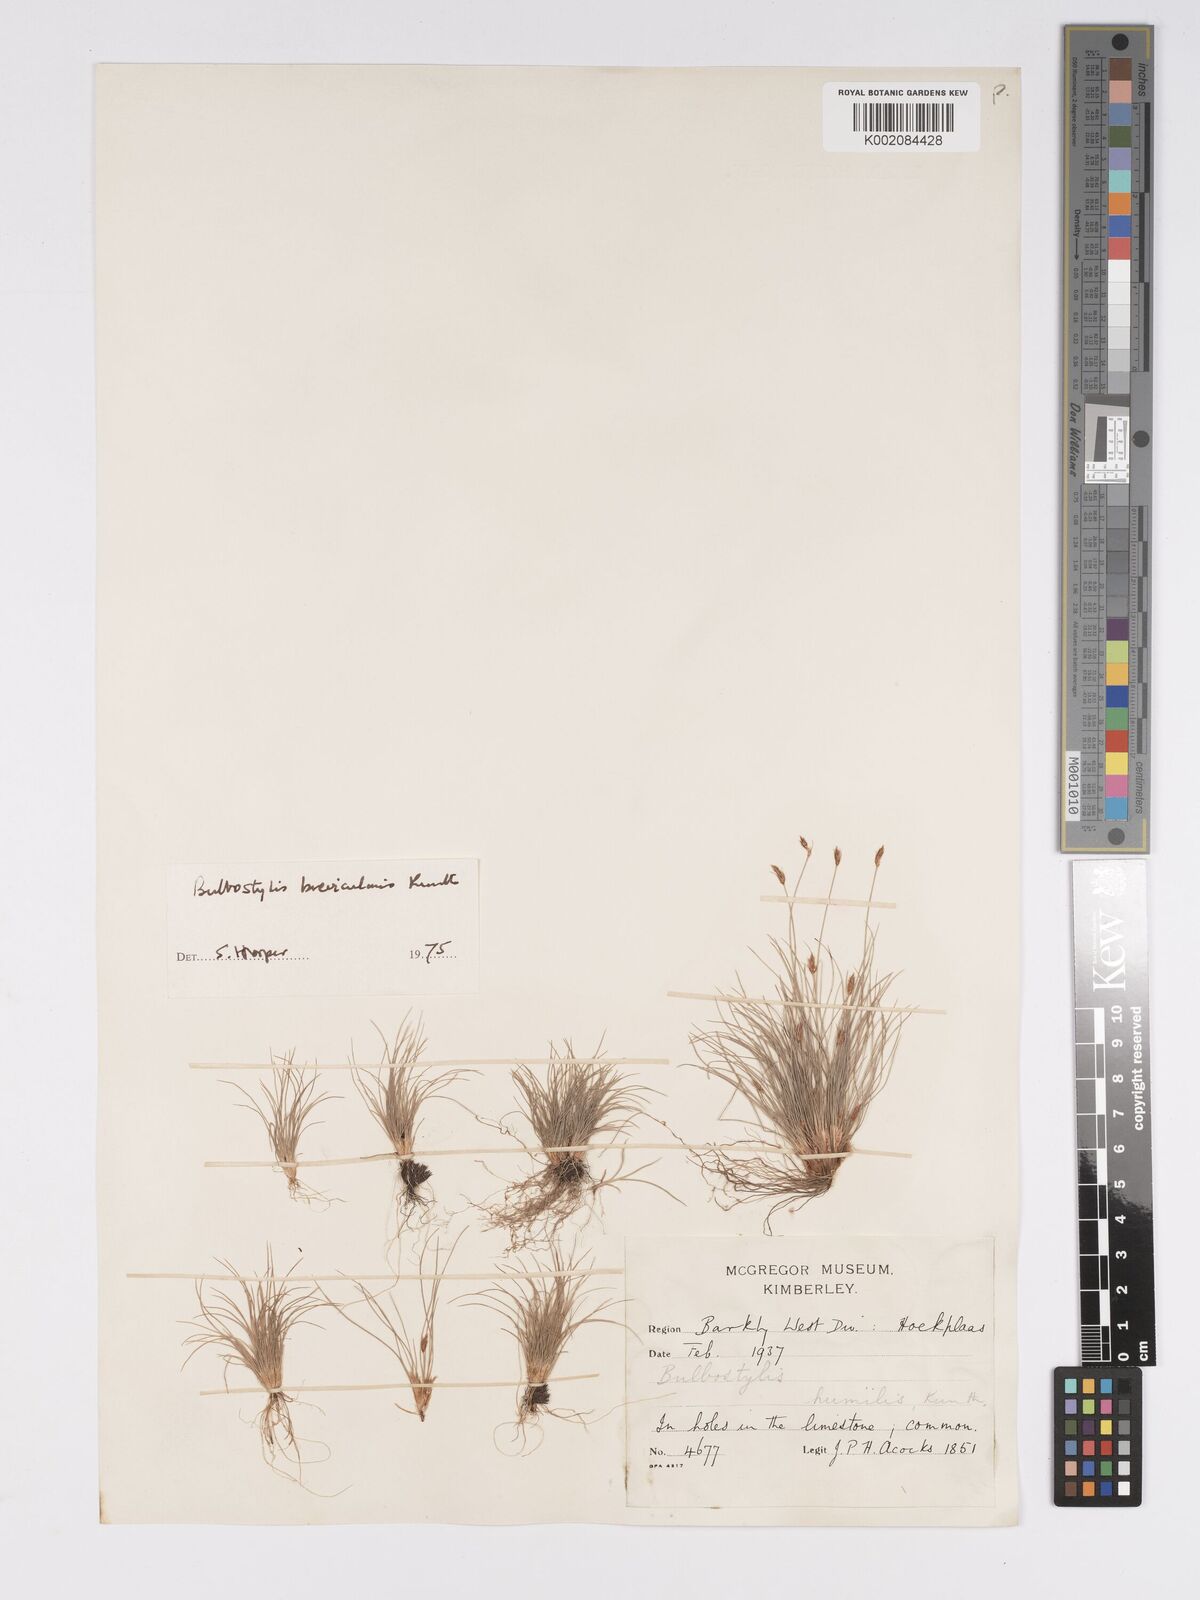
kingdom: Plantae
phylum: Tracheophyta
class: Liliopsida
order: Poales
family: Cyperaceae
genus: Bulbostylis
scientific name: Bulbostylis humilis
